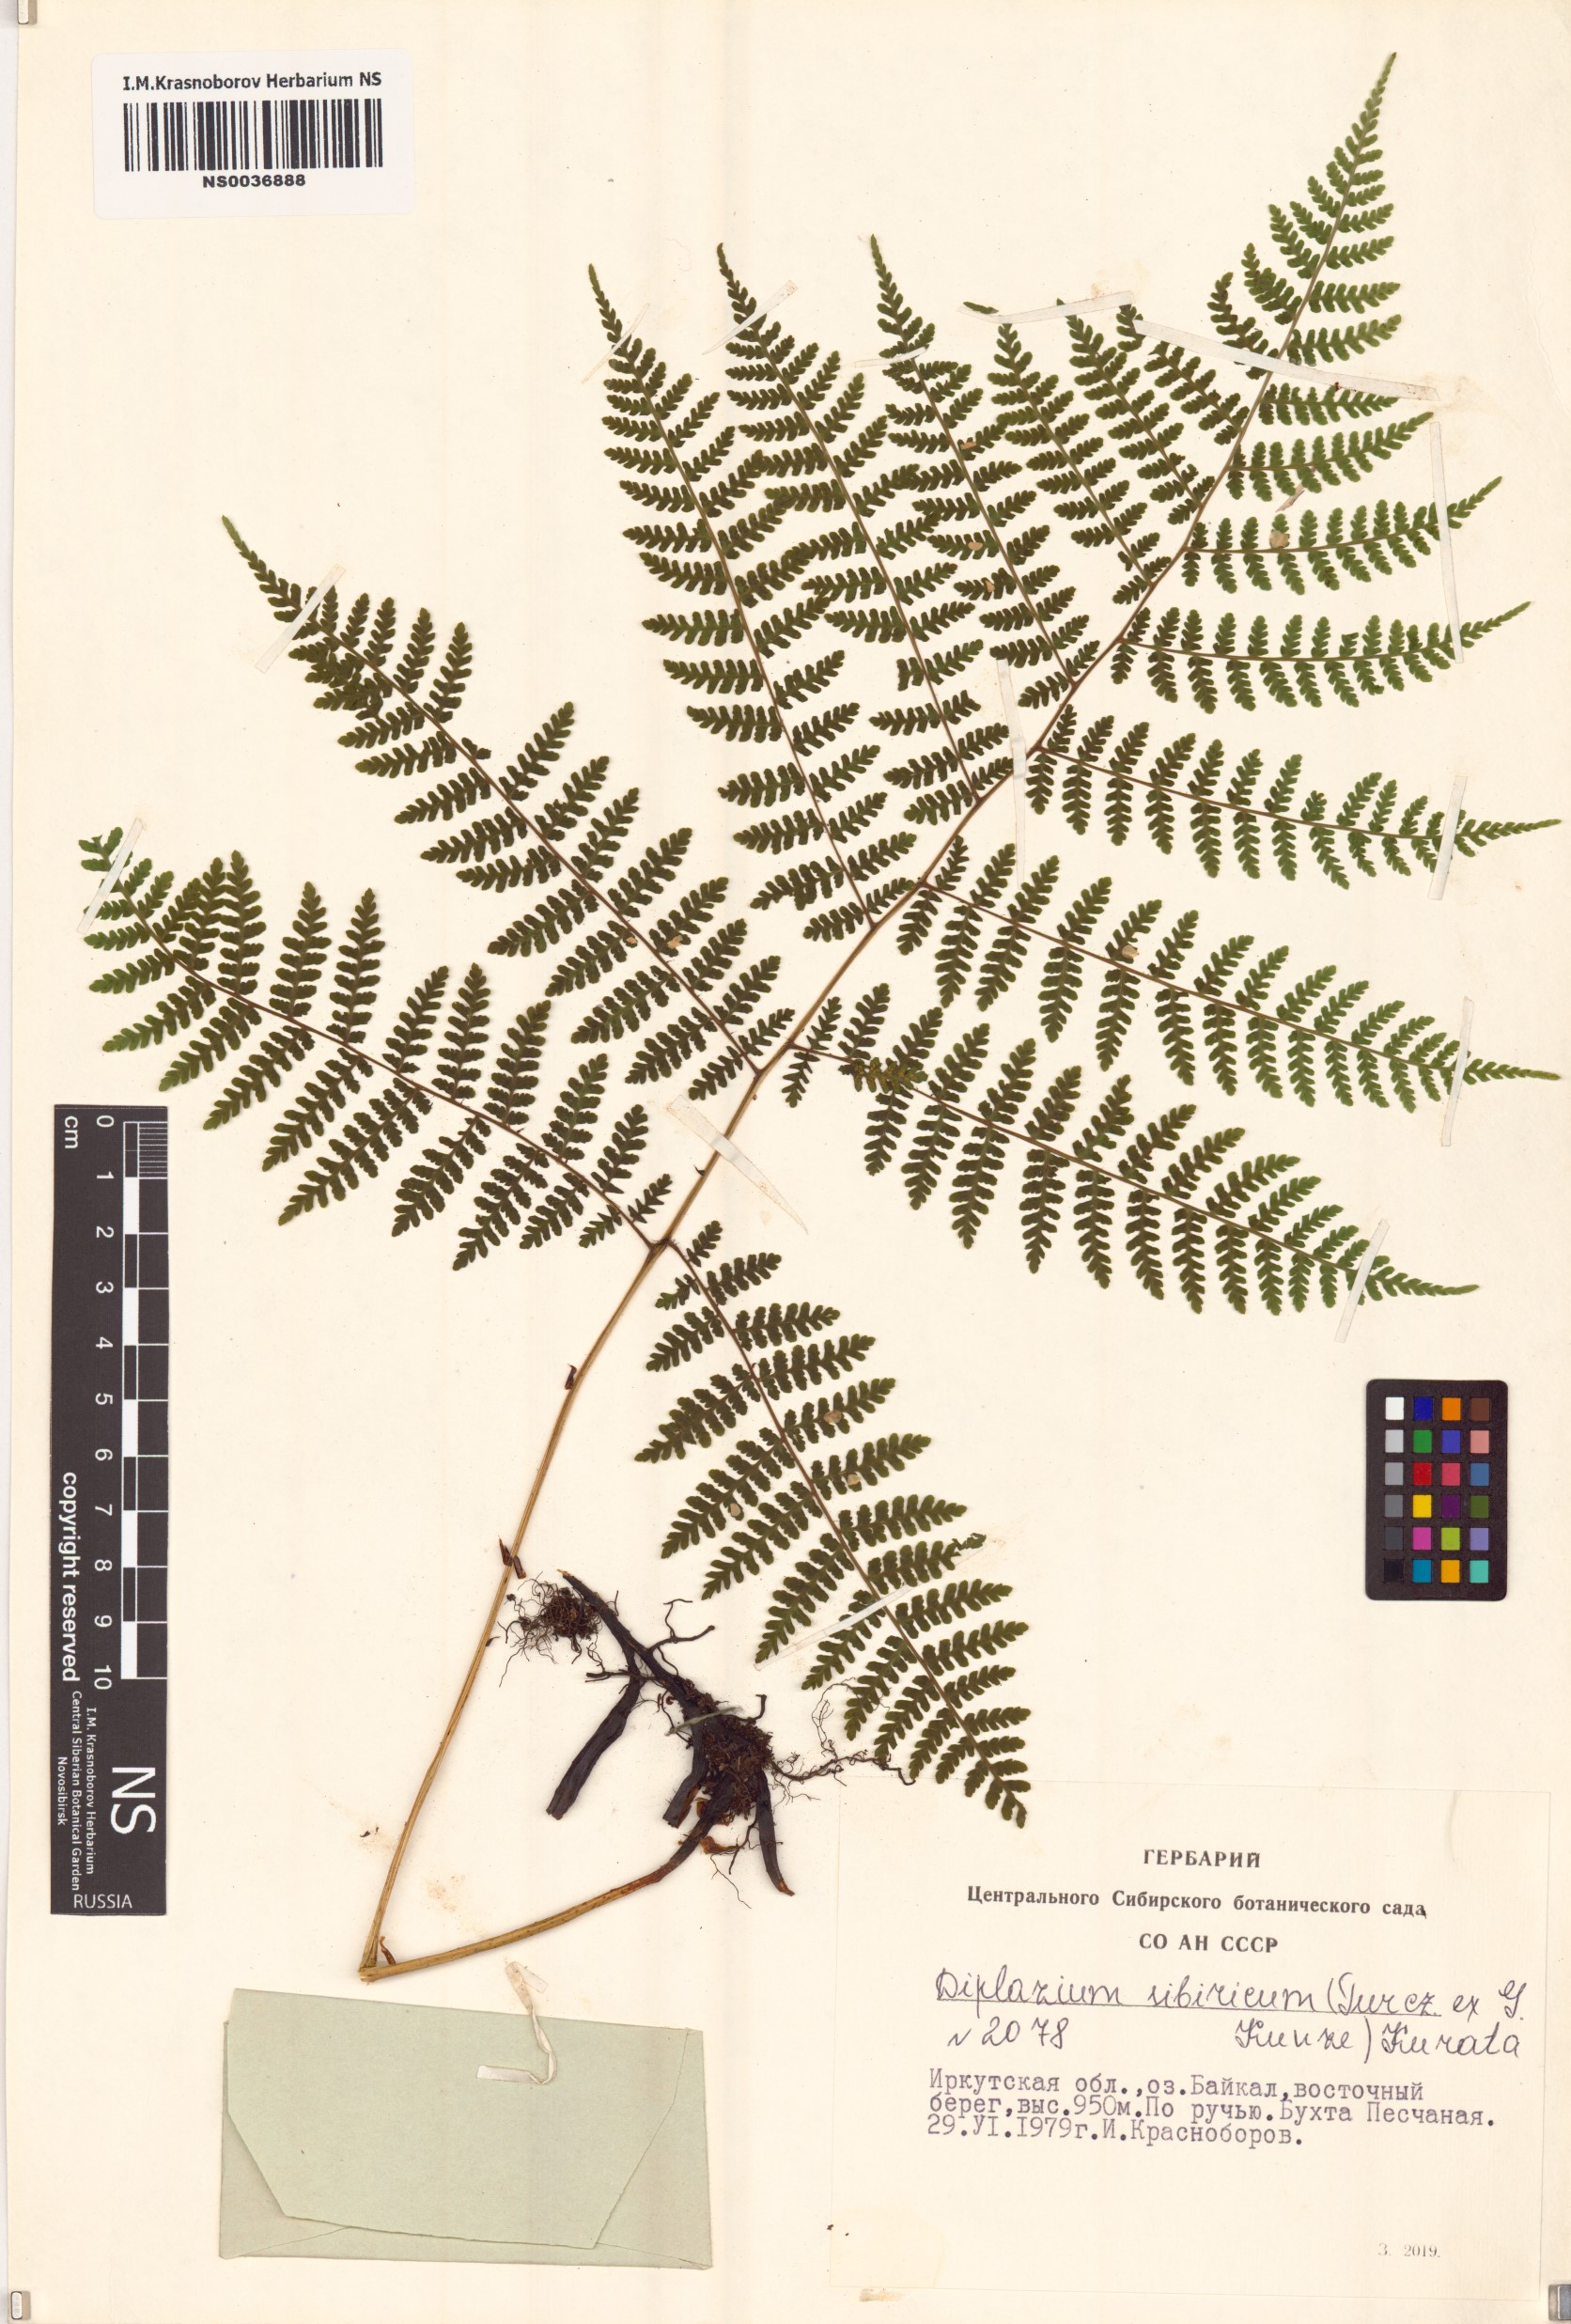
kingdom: Plantae
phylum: Tracheophyta
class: Polypodiopsida
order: Polypodiales
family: Athyriaceae
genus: Diplazium
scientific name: Diplazium sibiricum
